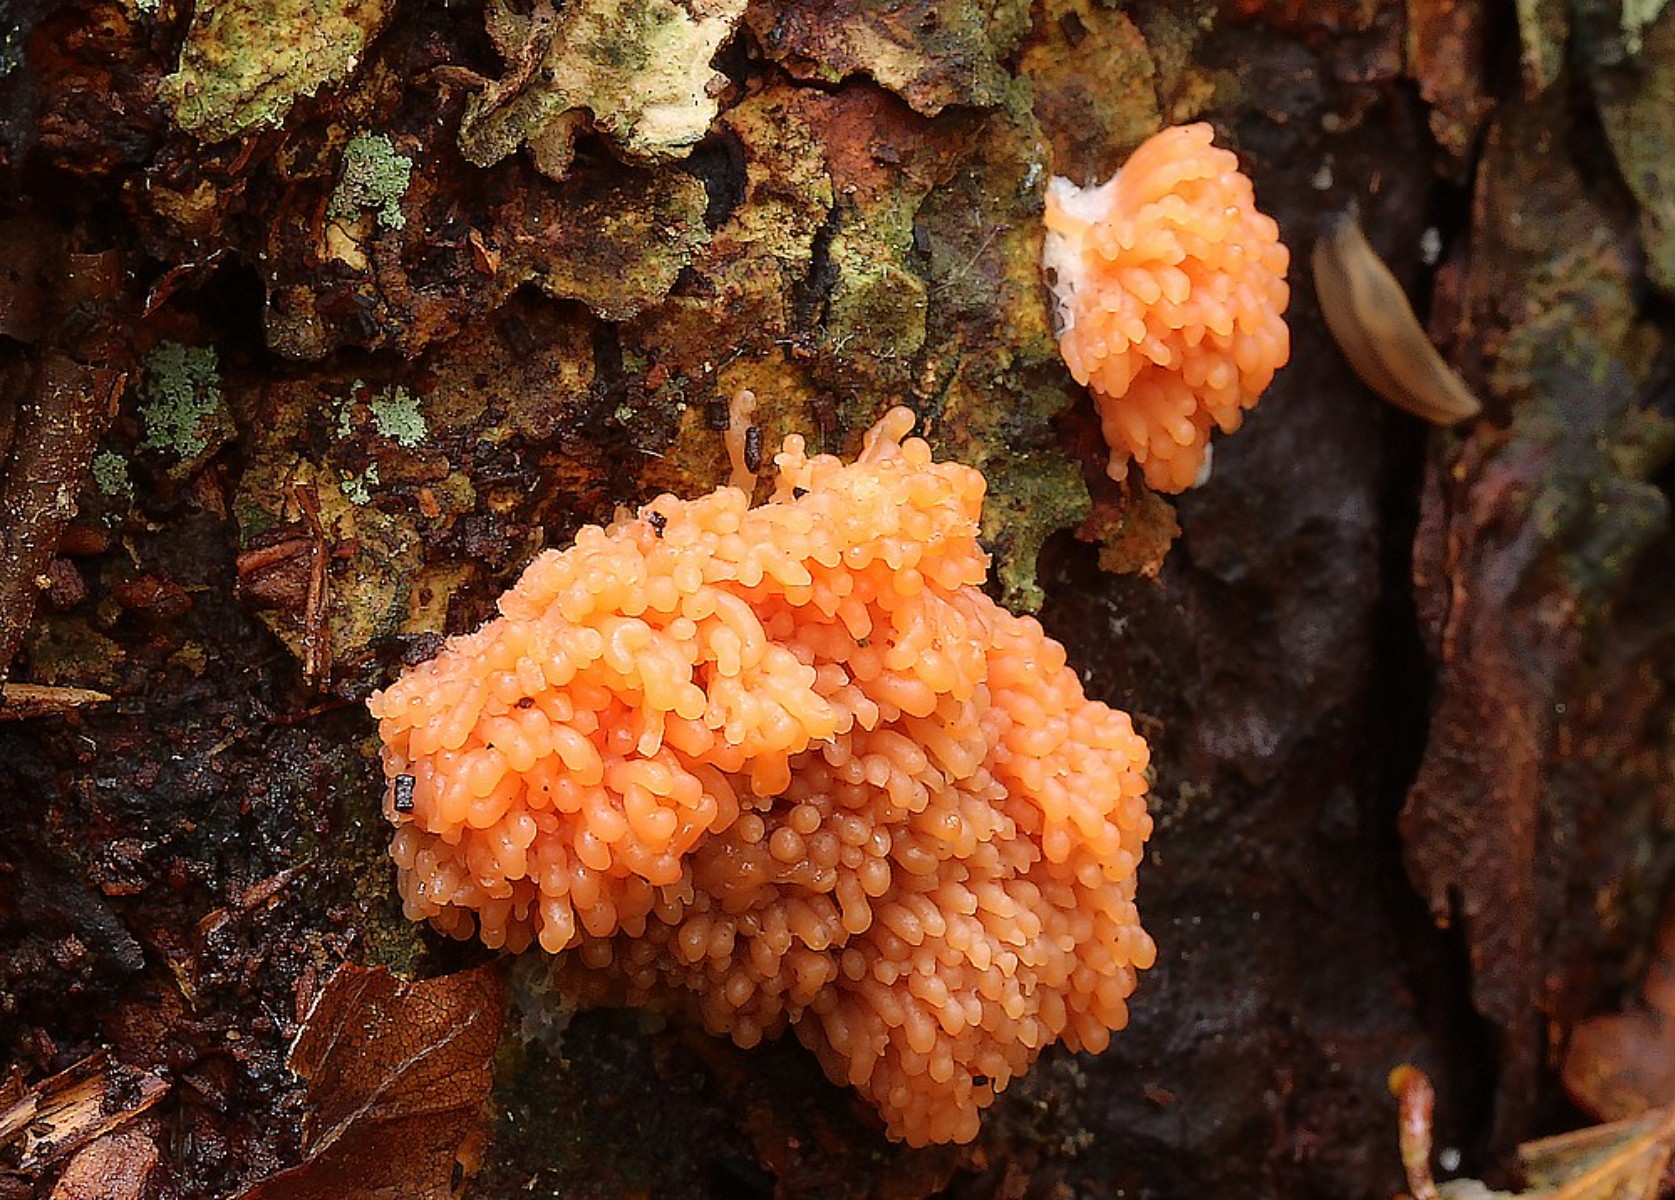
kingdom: Protozoa
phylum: Mycetozoa
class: Myxomycetes
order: Cribrariales
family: Tubiferaceae
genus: Tubifera
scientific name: Tubifera ferruginosa
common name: kanel-støvrør
